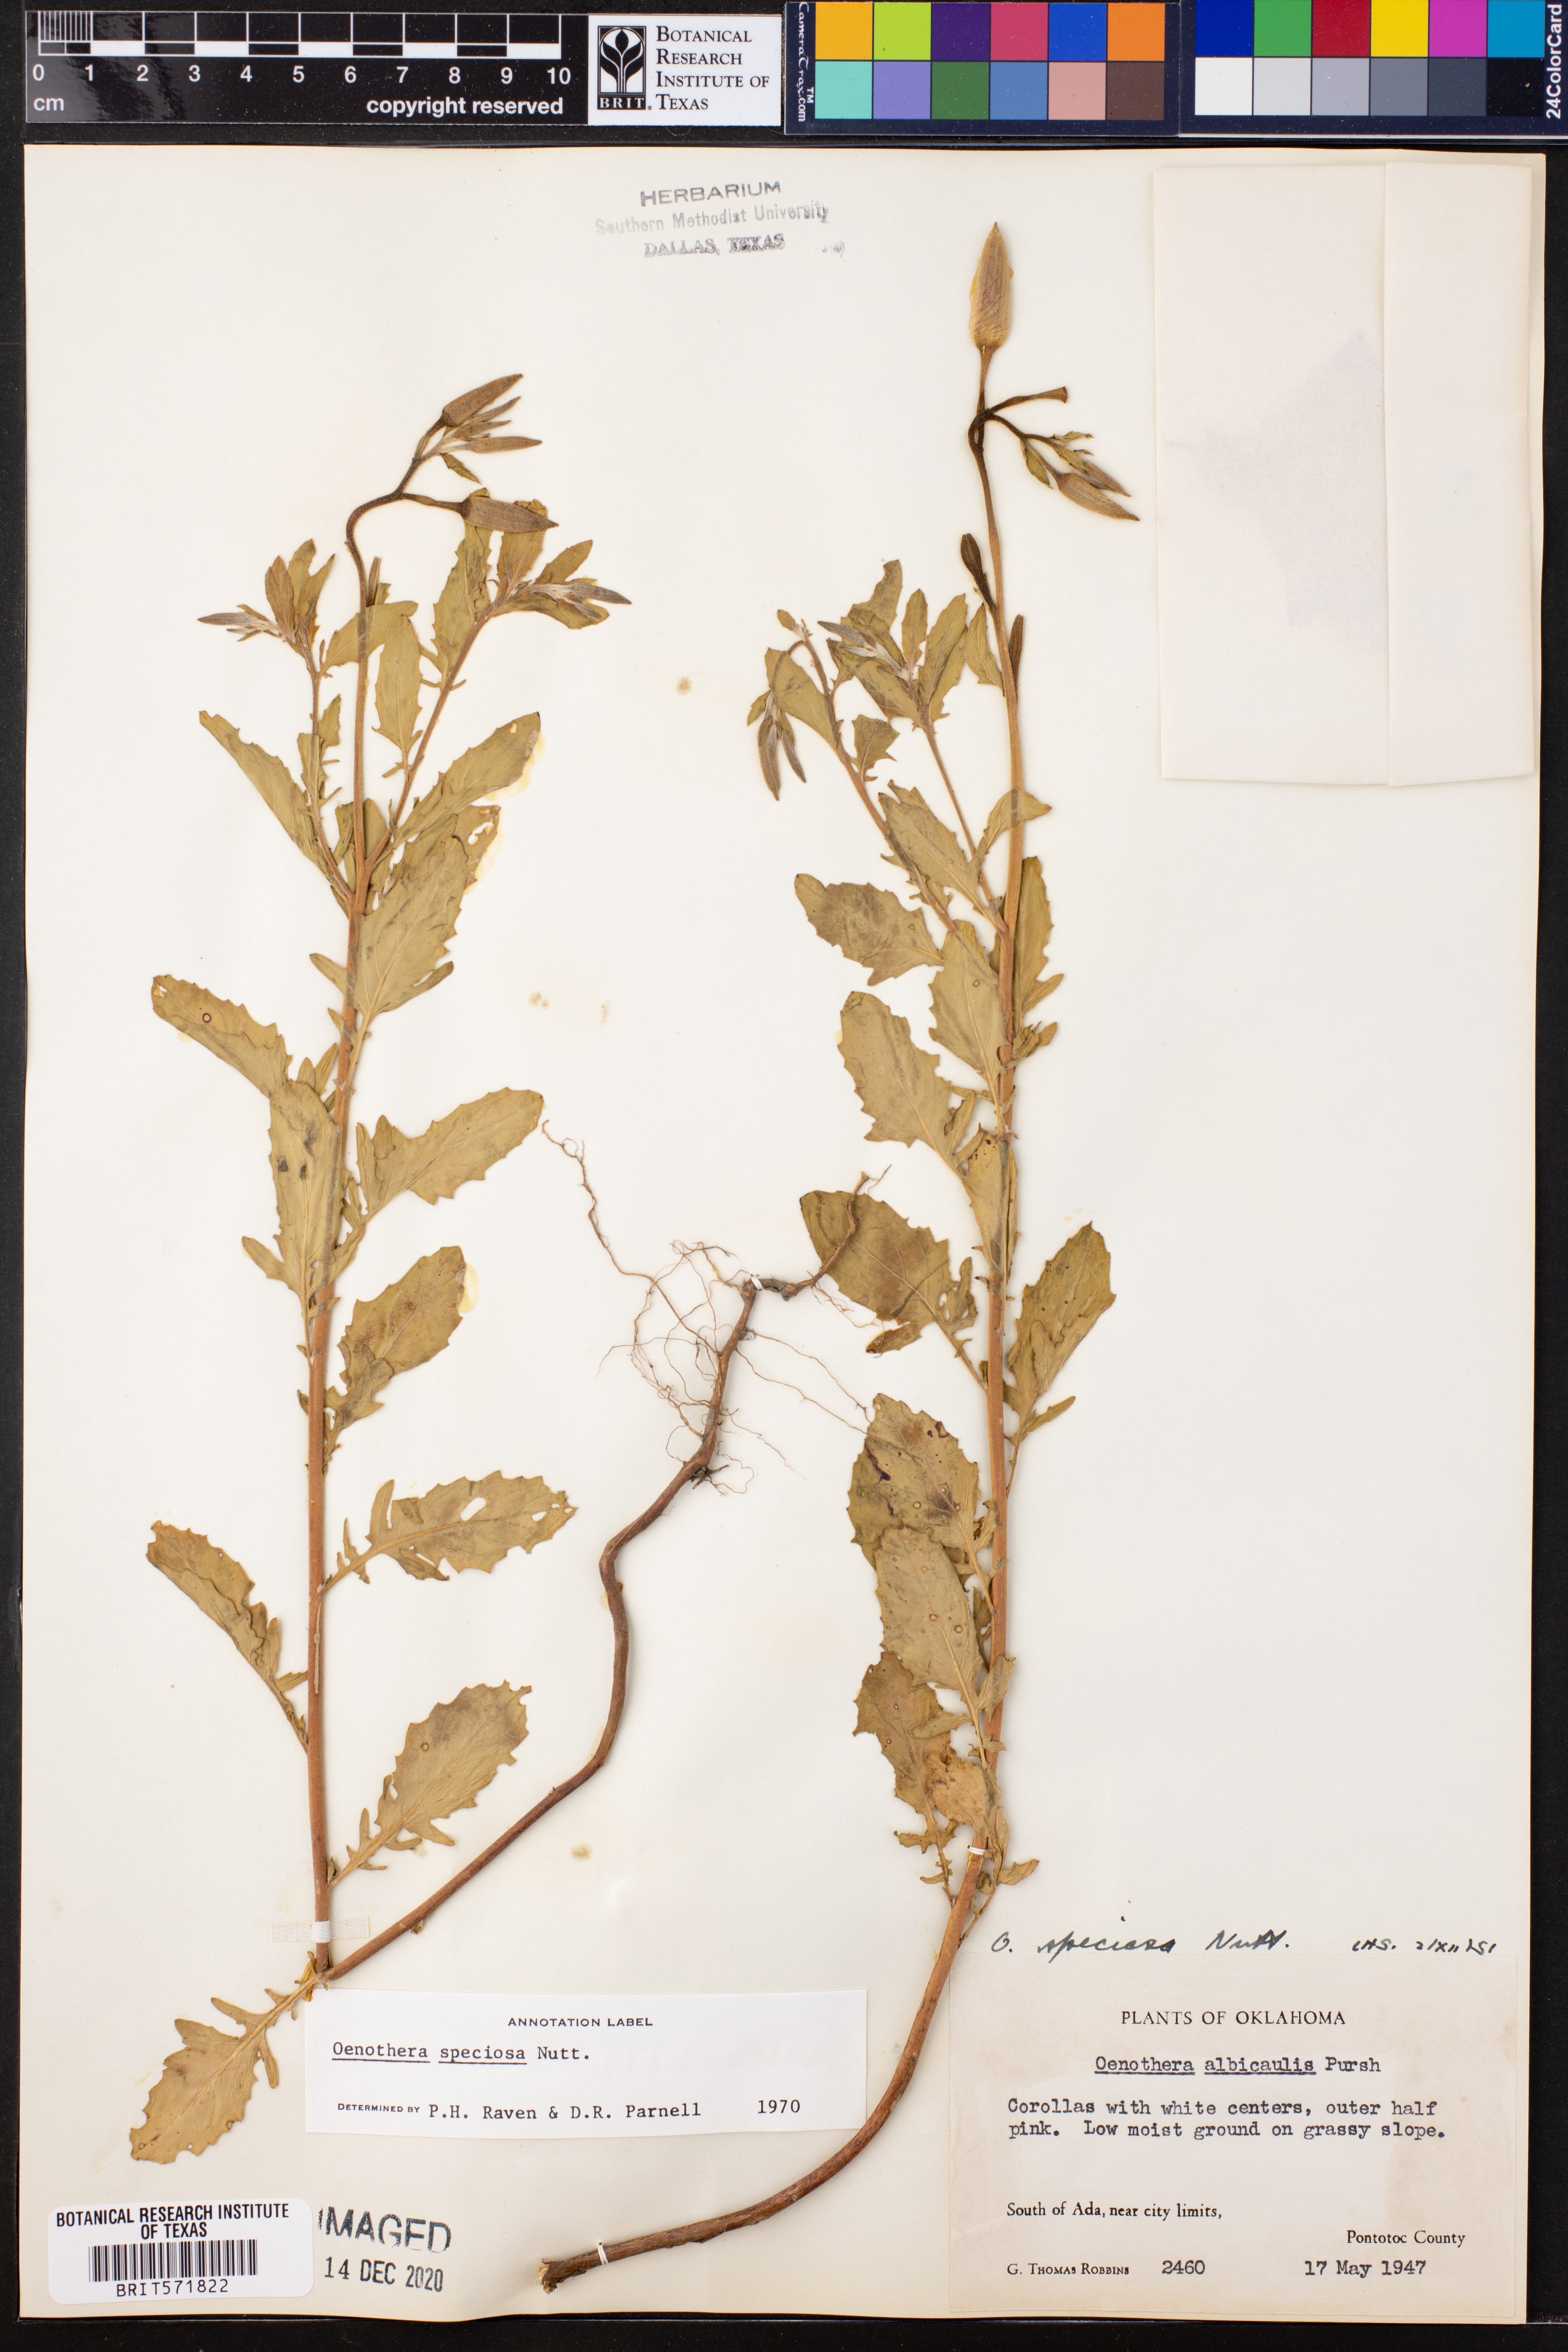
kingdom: Plantae
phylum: Tracheophyta
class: Magnoliopsida
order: Myrtales
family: Onagraceae
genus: Oenothera
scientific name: Oenothera speciosa
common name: White evening-primrose
